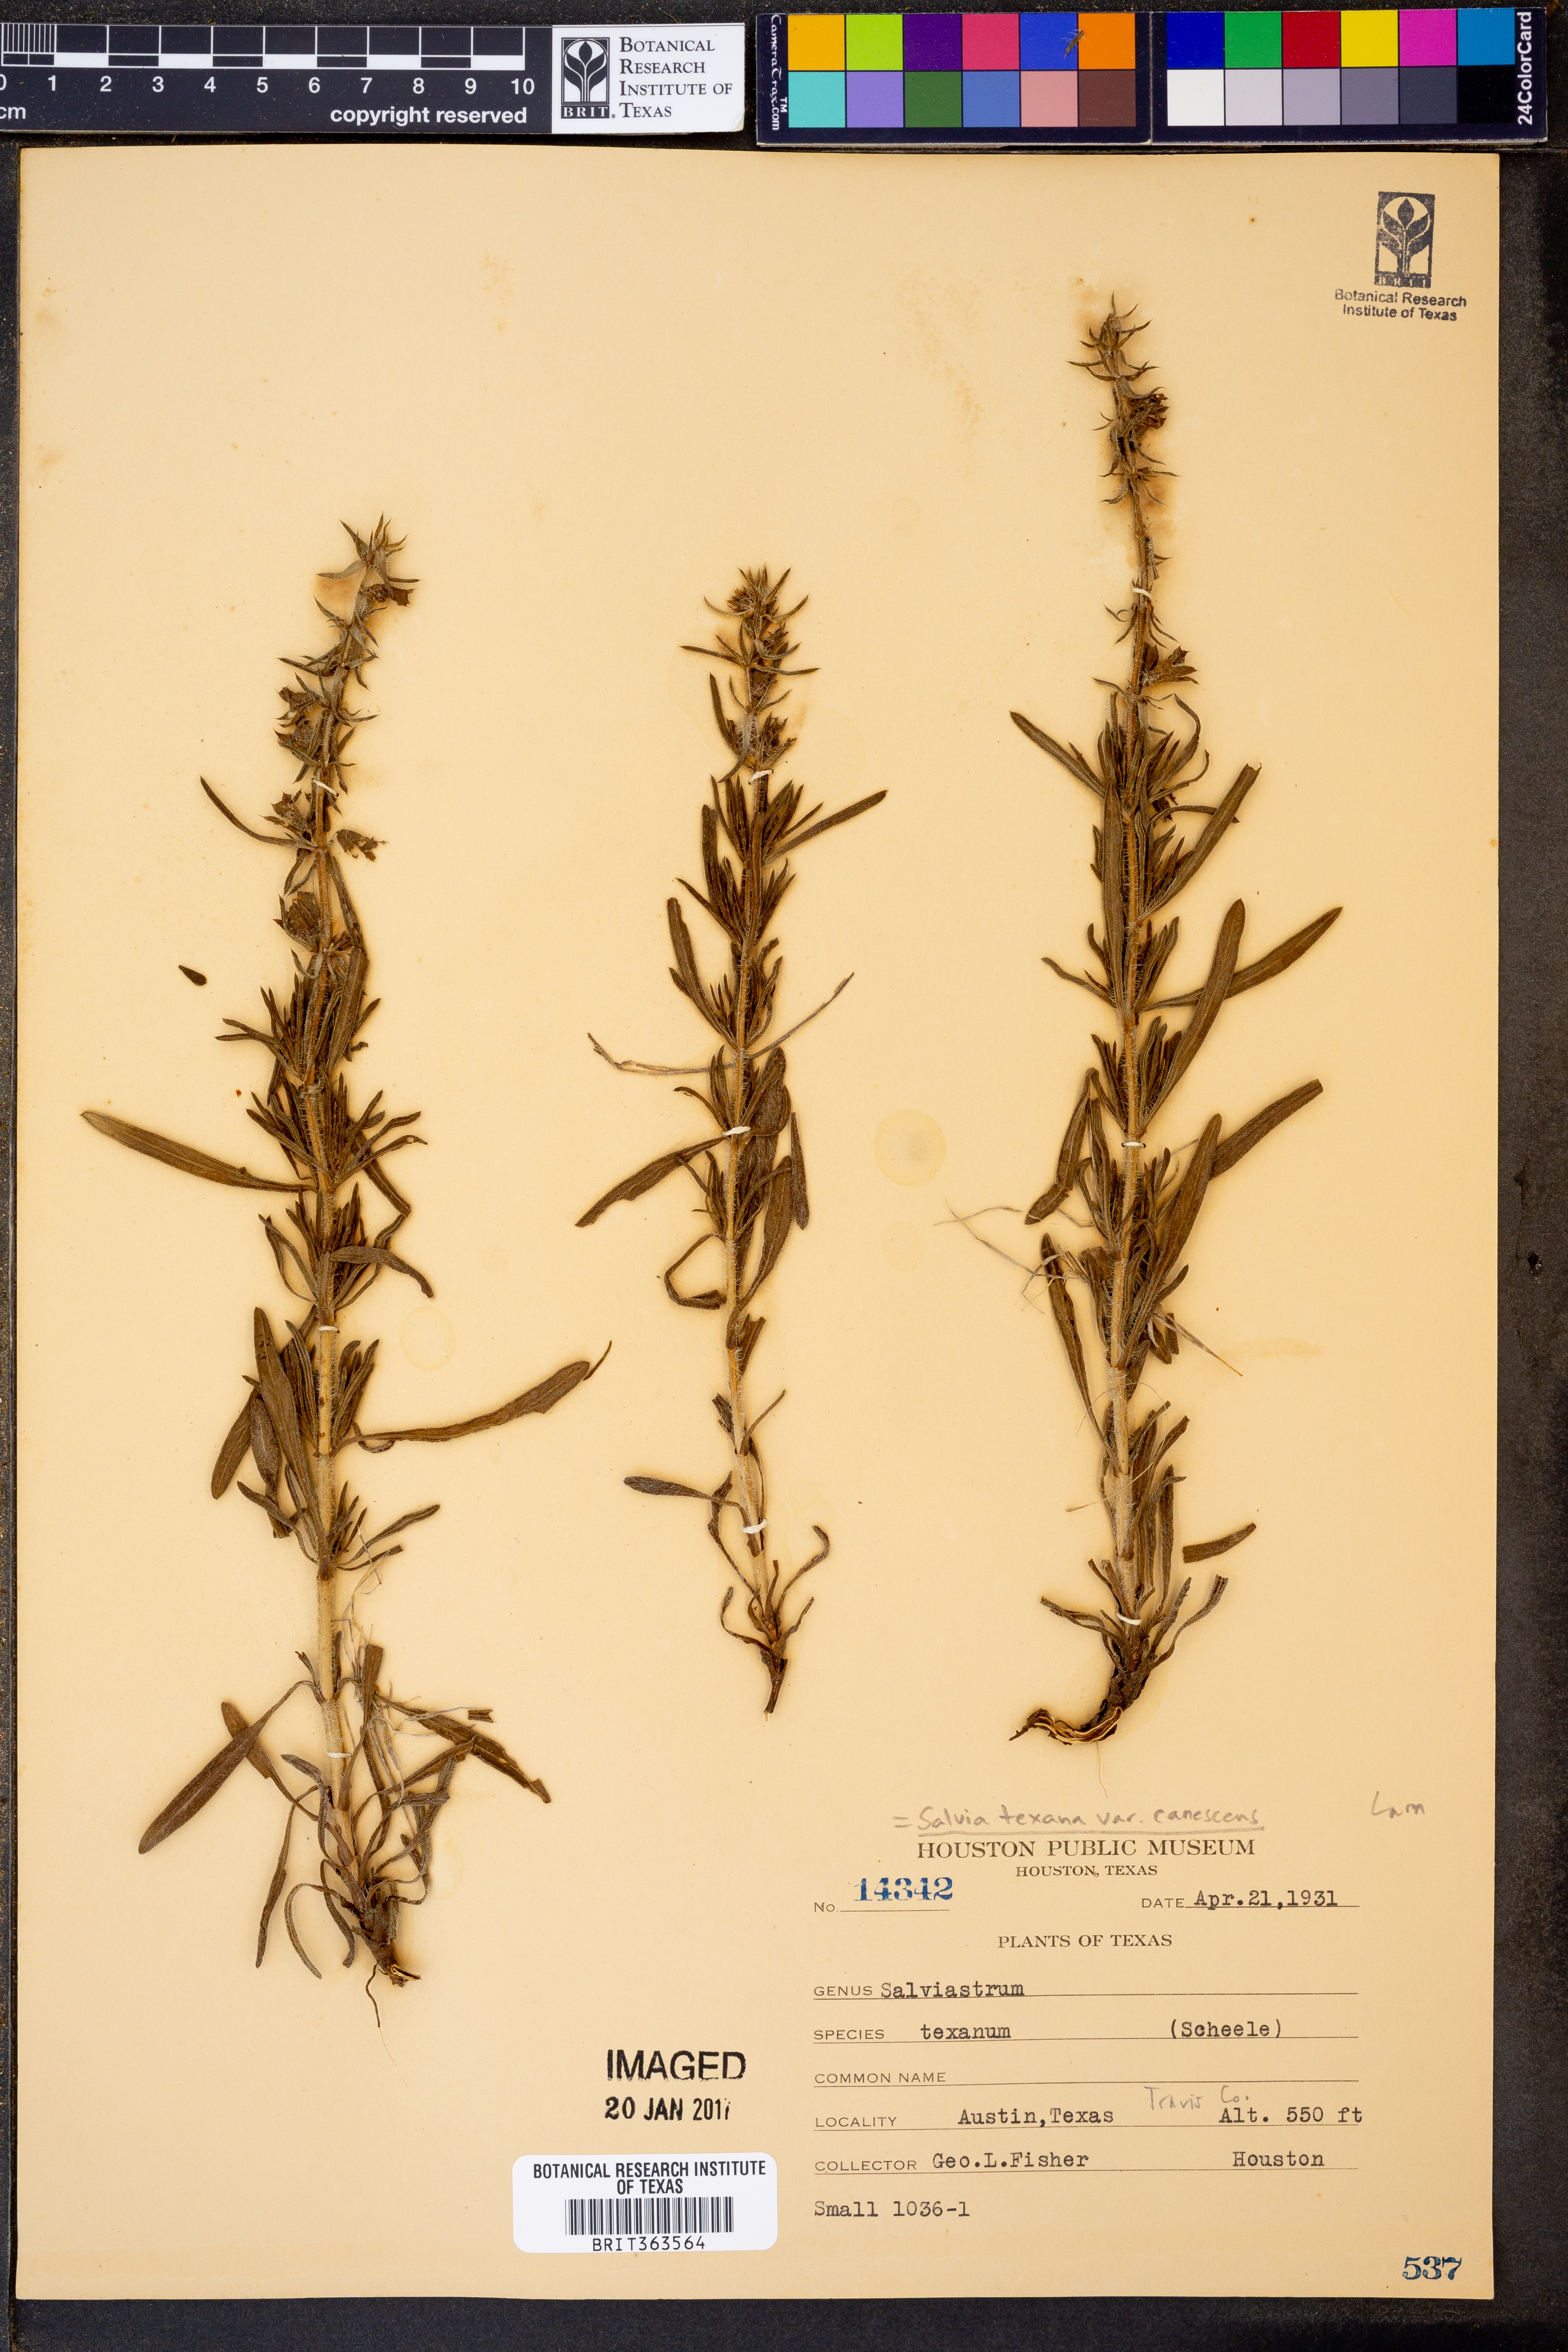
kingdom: Plantae
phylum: Tracheophyta
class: Magnoliopsida
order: Lamiales
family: Lamiaceae
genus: Salvia
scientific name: Salvia texana
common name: Texas sage
